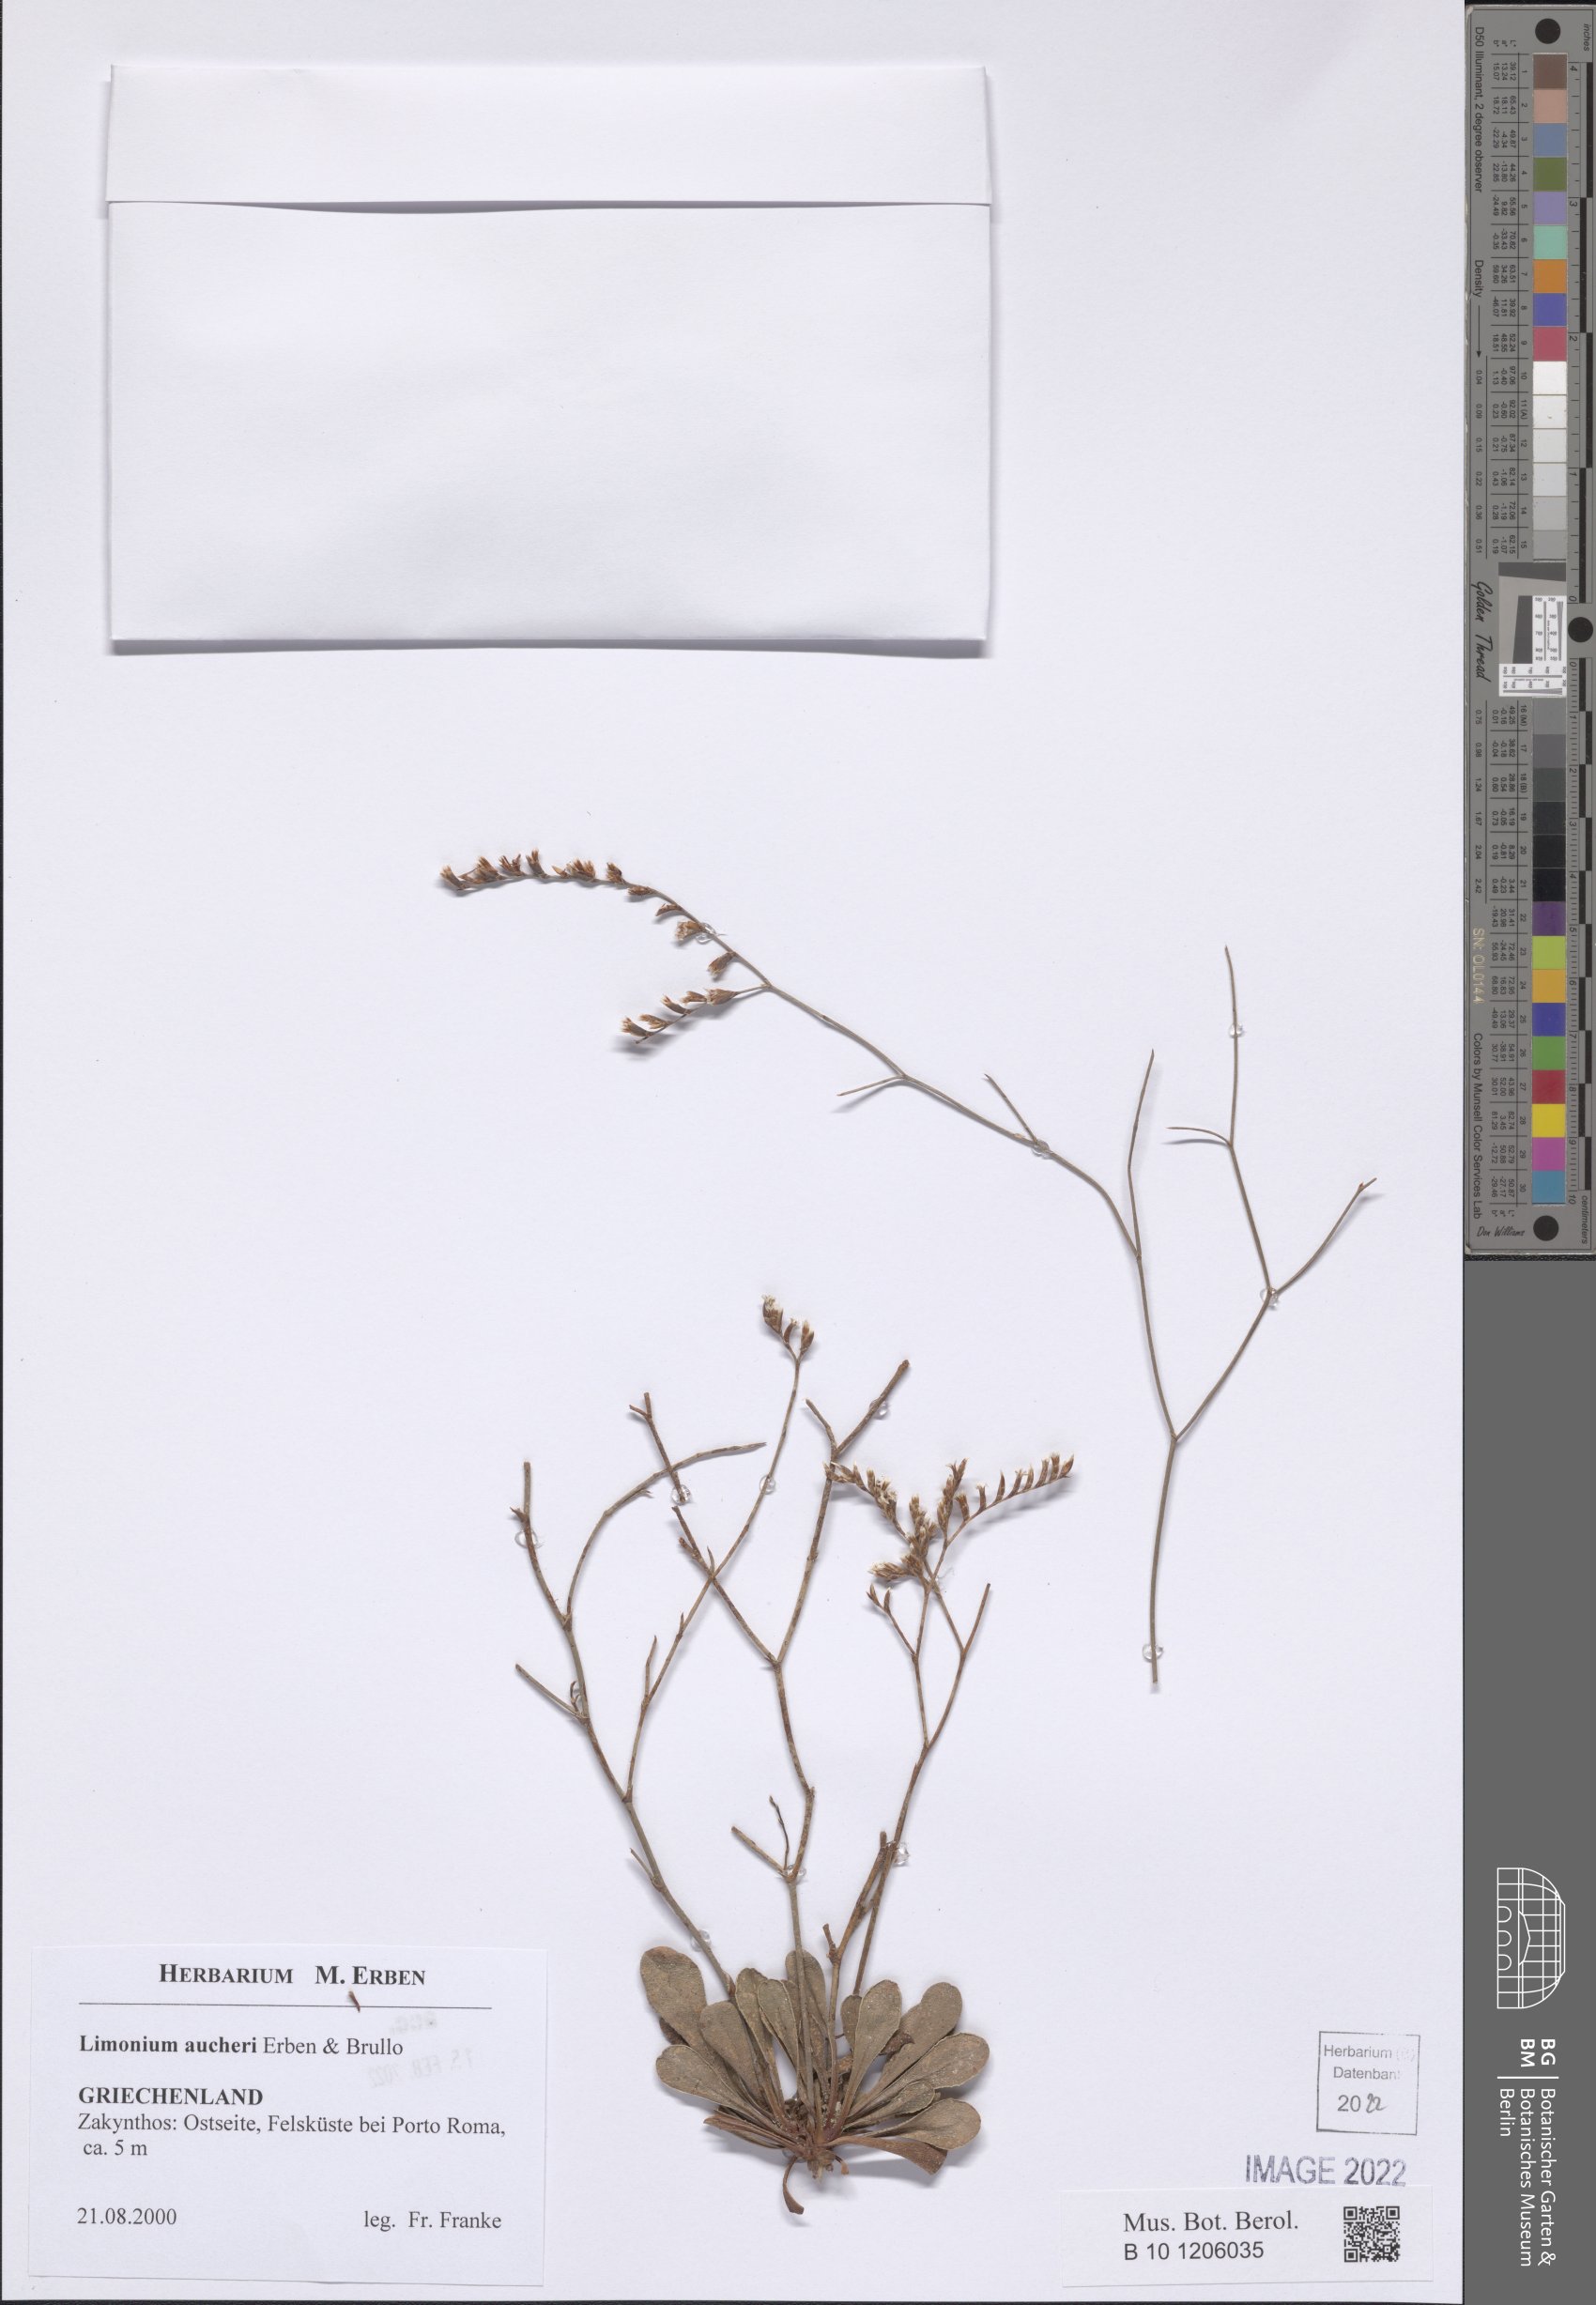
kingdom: Plantae
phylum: Tracheophyta
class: Magnoliopsida
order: Caryophyllales
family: Plumbaginaceae
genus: Limonium
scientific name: Limonium aucheri
